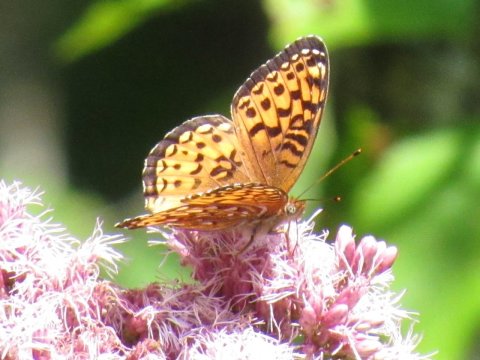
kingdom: Animalia
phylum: Arthropoda
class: Insecta
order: Lepidoptera
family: Nymphalidae
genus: Speyeria
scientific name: Speyeria atlantis
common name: Atlantis Fritillary
